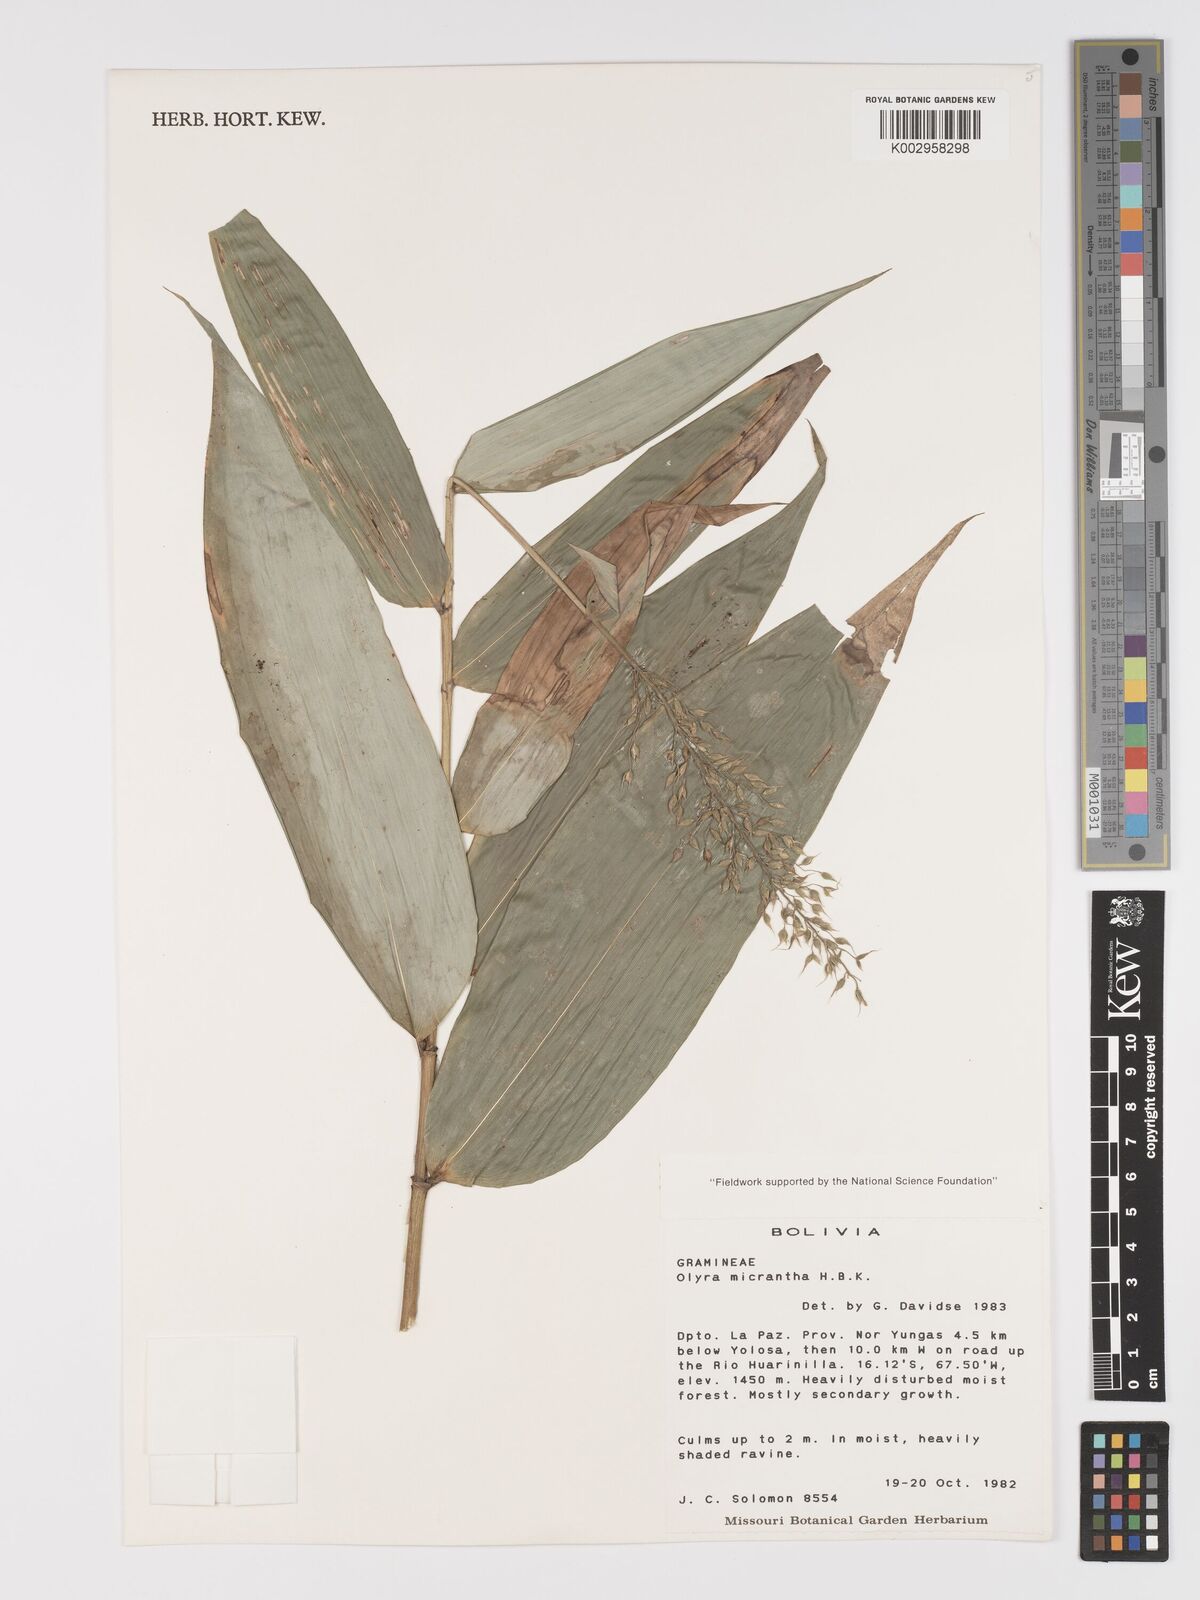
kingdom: Plantae
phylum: Tracheophyta
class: Liliopsida
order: Poales
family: Poaceae
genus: Taquara
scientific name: Taquara micrantha
